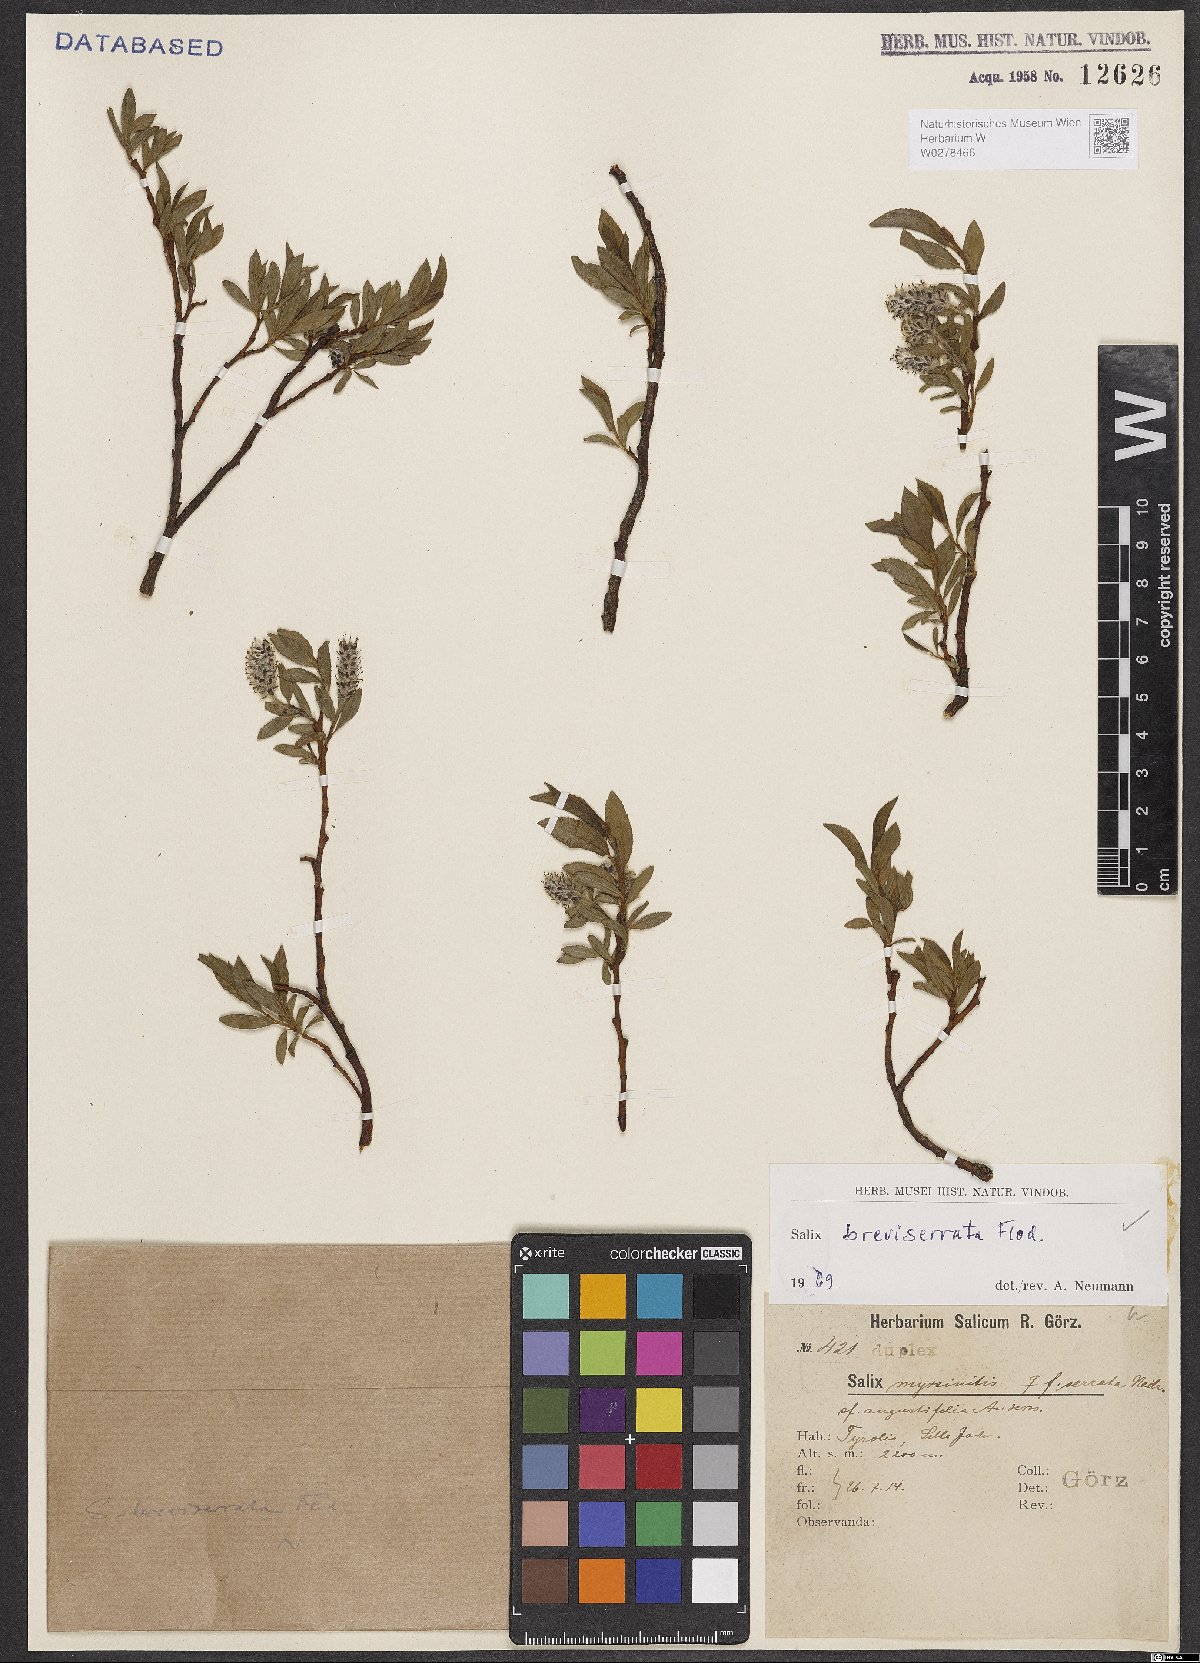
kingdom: Plantae
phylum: Tracheophyta
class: Magnoliopsida
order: Malpighiales
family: Salicaceae
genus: Salix
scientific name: Salix breviserrata
